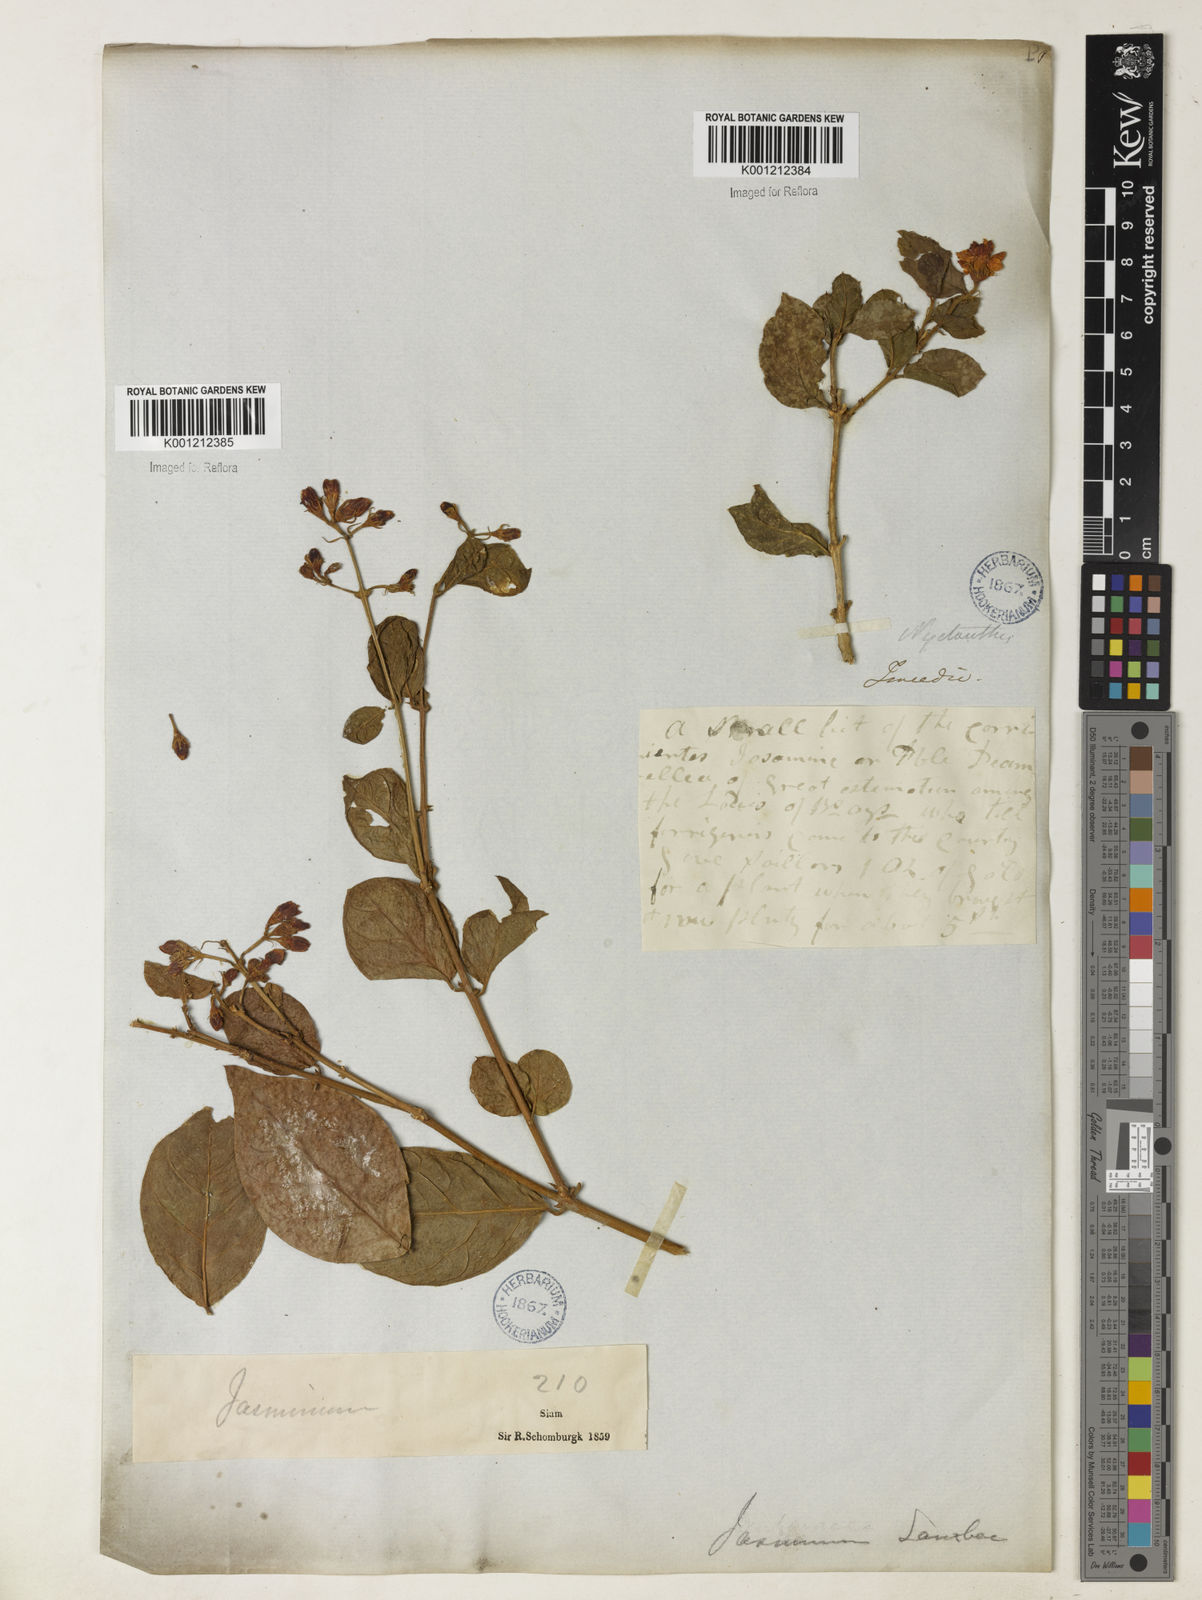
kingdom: Plantae
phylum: Tracheophyta
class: Magnoliopsida
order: Lamiales
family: Oleaceae
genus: Jasminum
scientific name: Jasminum sambac
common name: Arabian jasmine
